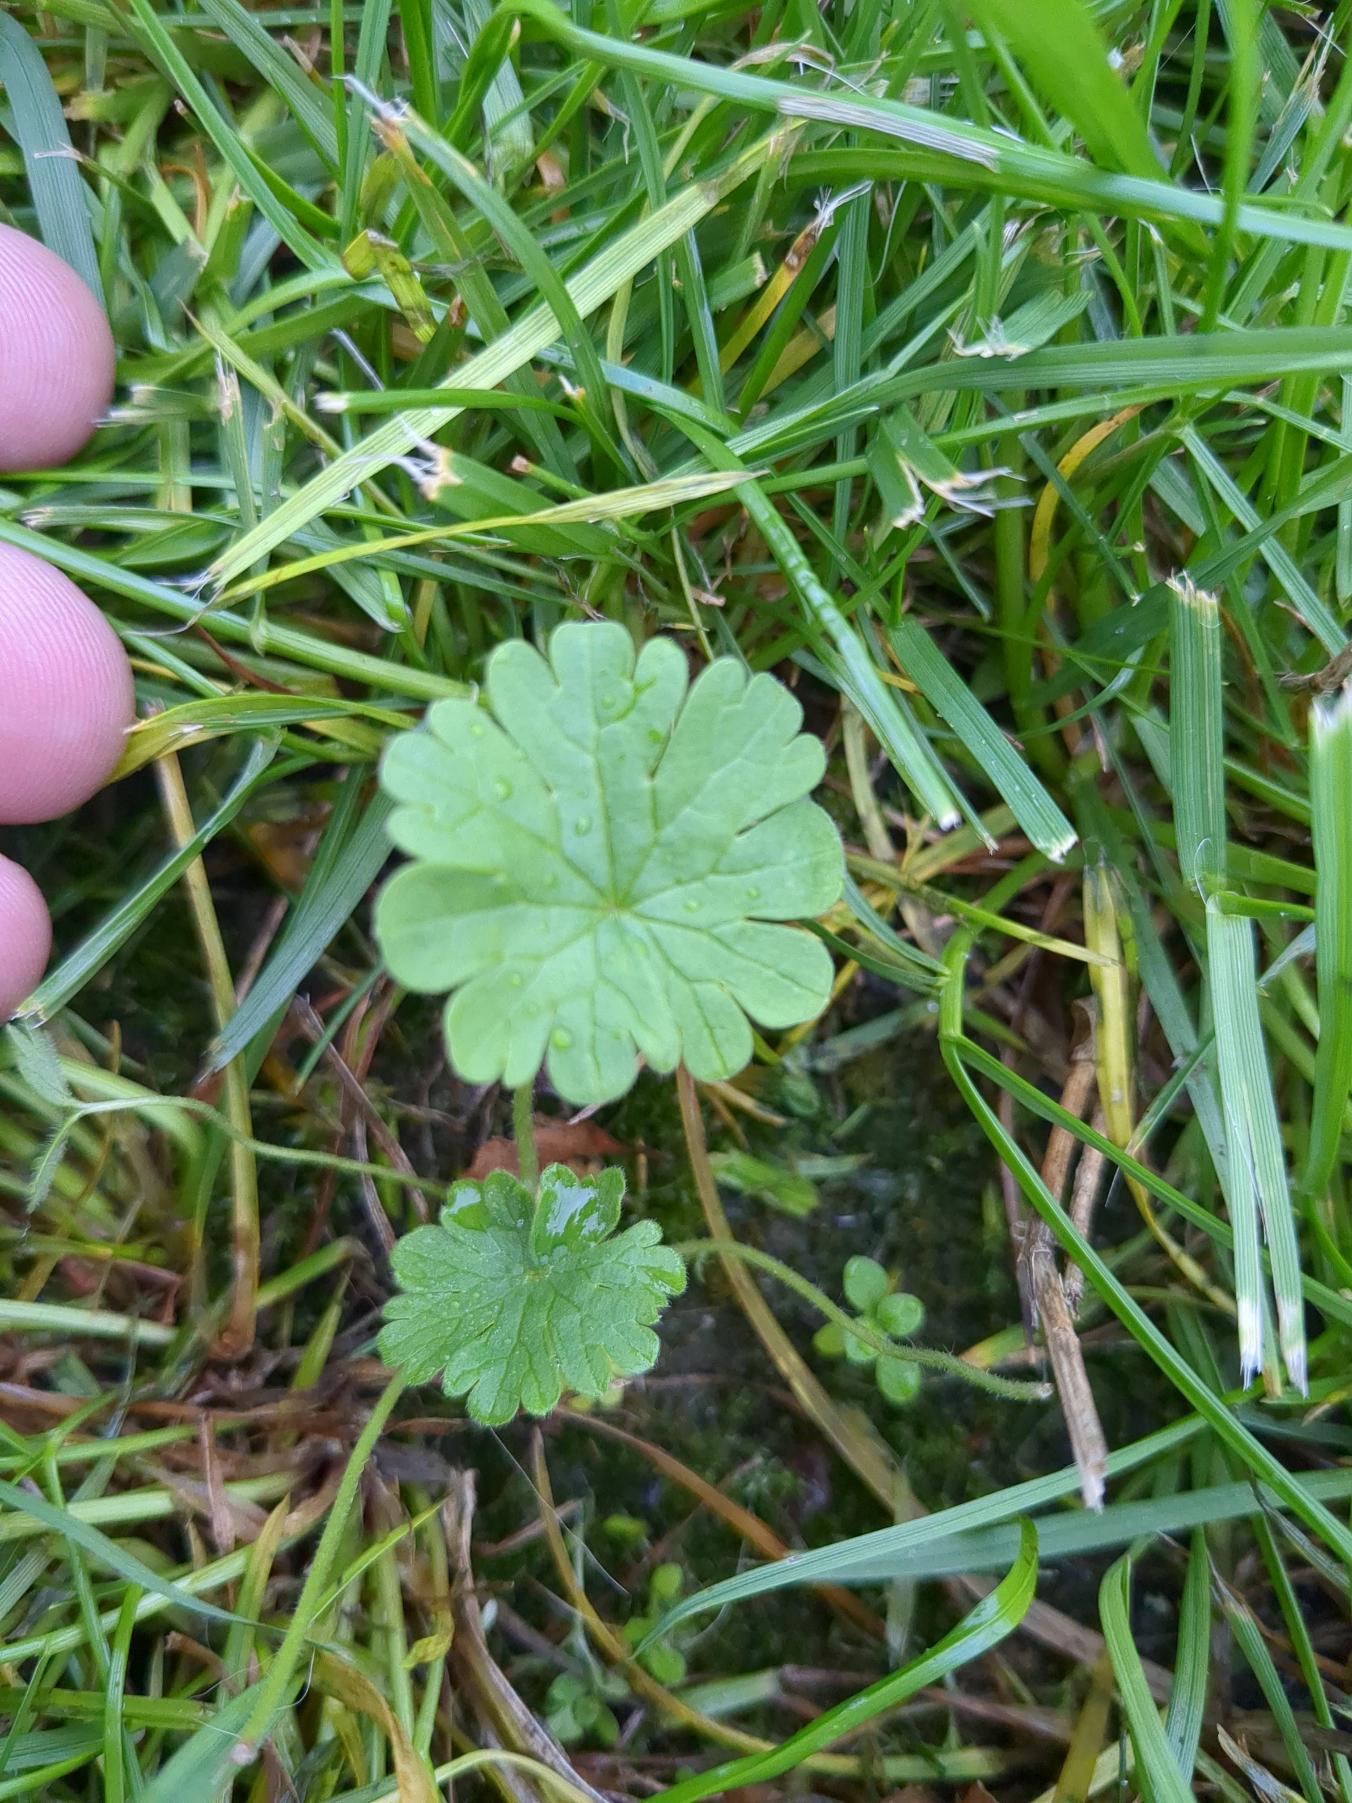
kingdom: Plantae
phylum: Tracheophyta
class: Magnoliopsida
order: Geraniales
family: Geraniaceae
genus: Geranium
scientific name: Geranium molle
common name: Blød storkenæb
